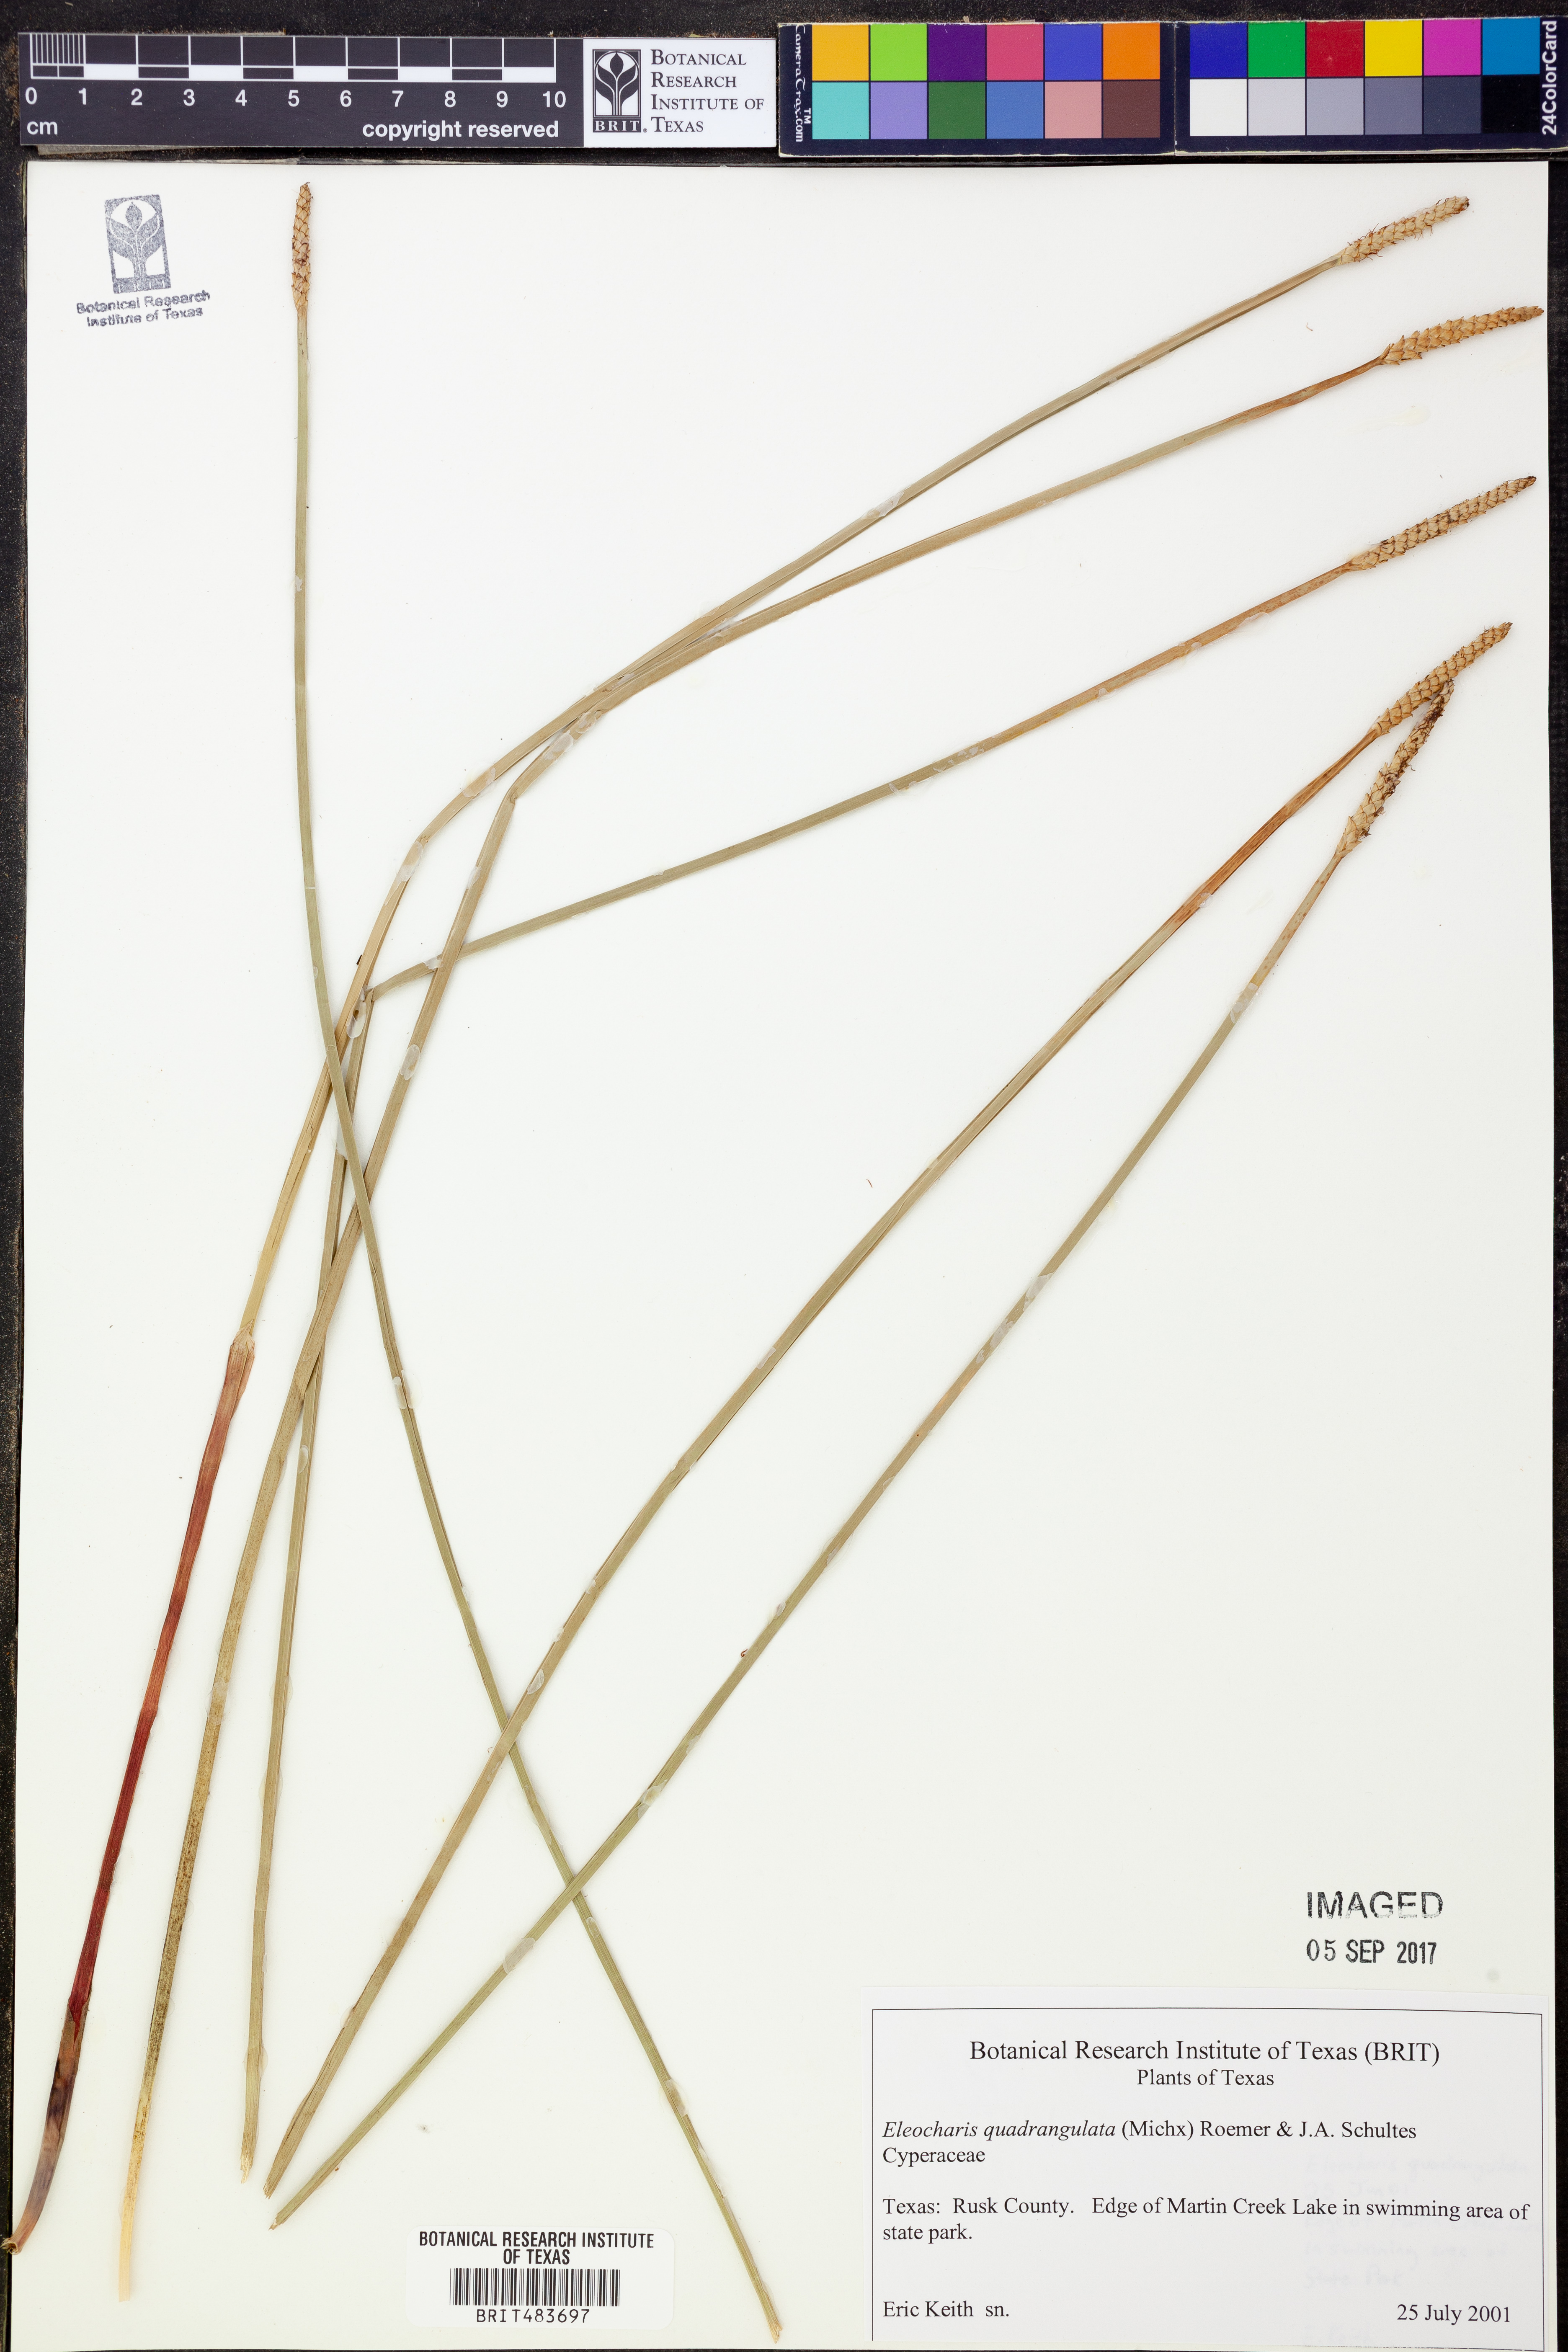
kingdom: Plantae
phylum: Tracheophyta
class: Liliopsida
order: Poales
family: Cyperaceae
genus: Eleocharis
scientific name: Eleocharis quadrangulata
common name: Square-stem spike-rush
